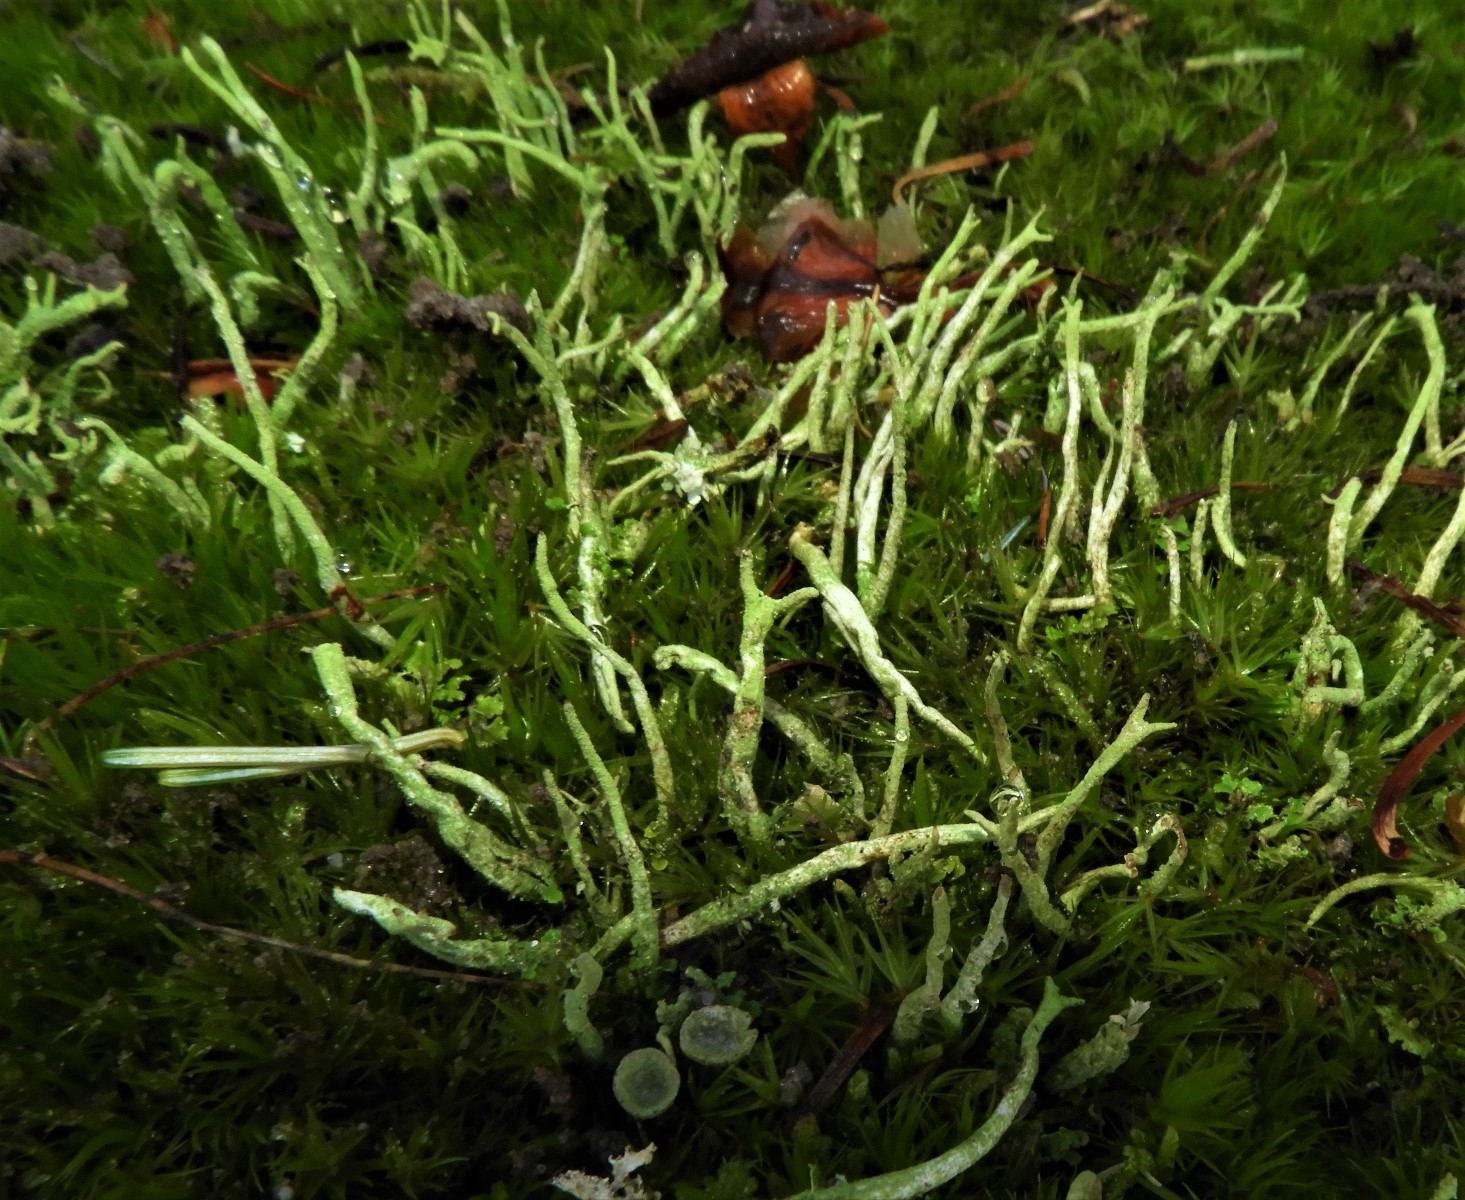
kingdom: Fungi
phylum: Ascomycota
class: Lecanoromycetes
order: Lecanorales
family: Cladoniaceae
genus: Cladonia
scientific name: Cladonia
